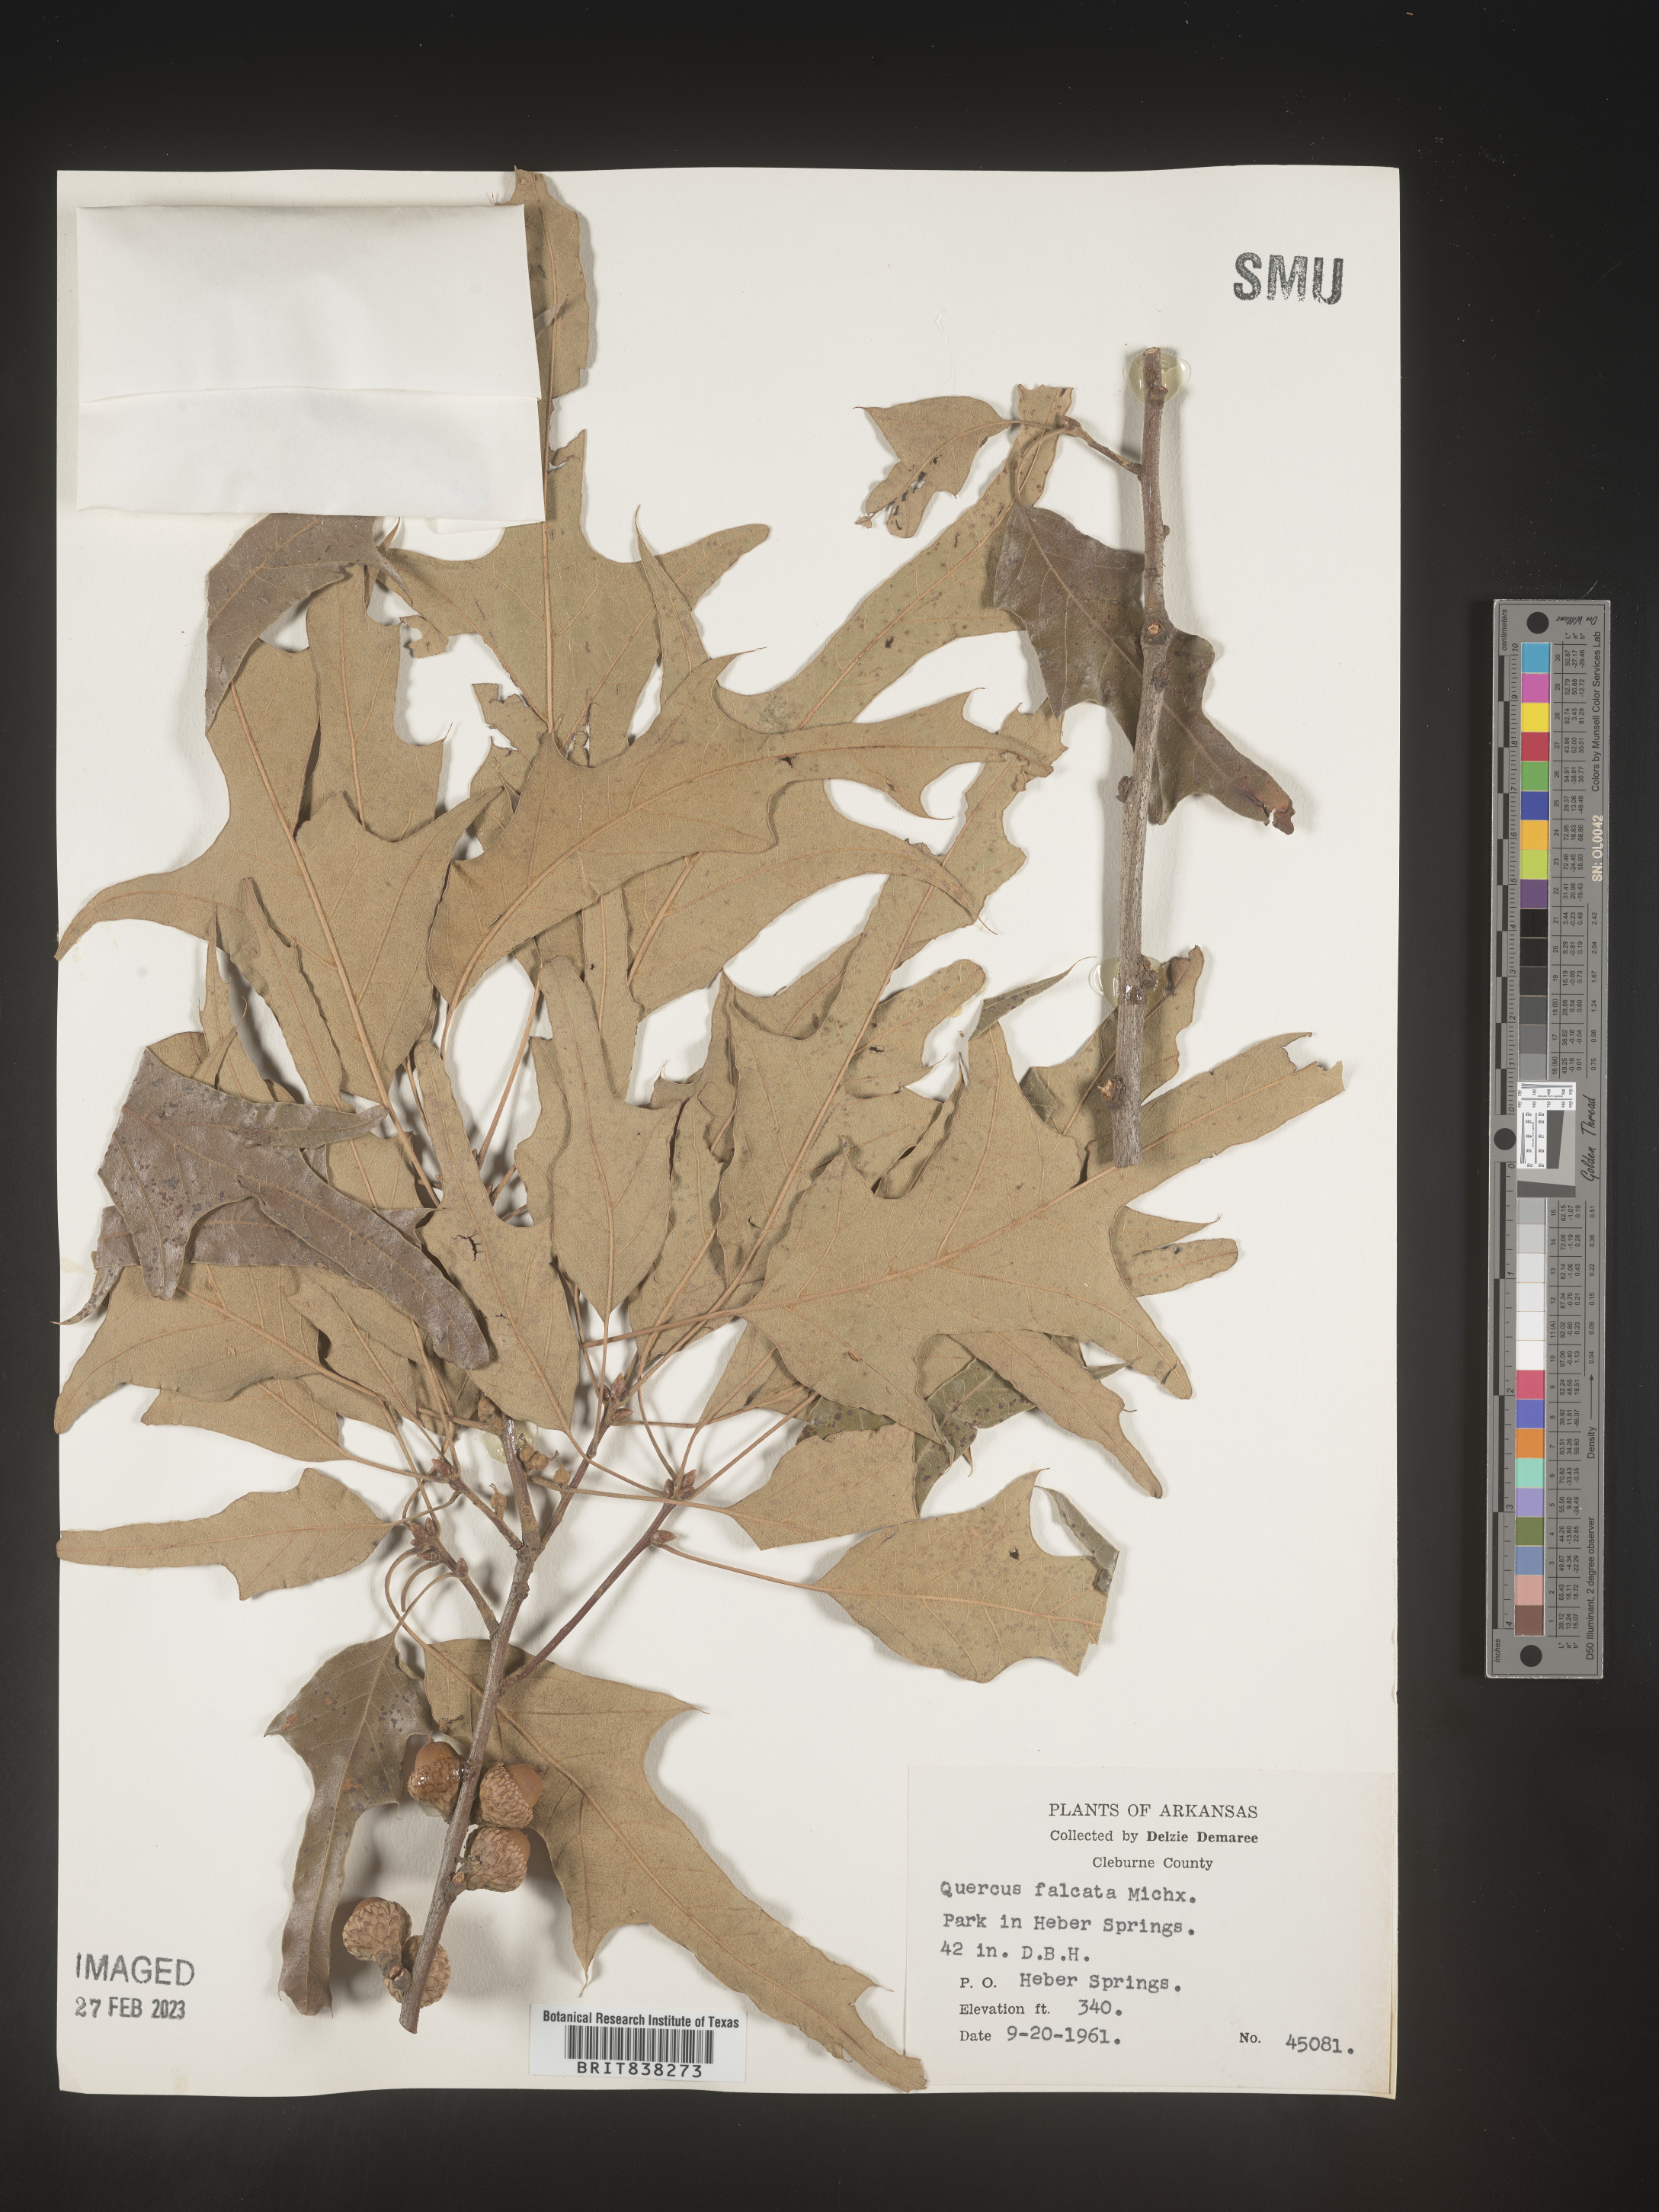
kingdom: Plantae
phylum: Tracheophyta
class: Magnoliopsida
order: Fagales
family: Fagaceae
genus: Quercus
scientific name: Quercus falcata
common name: Southern red oak
